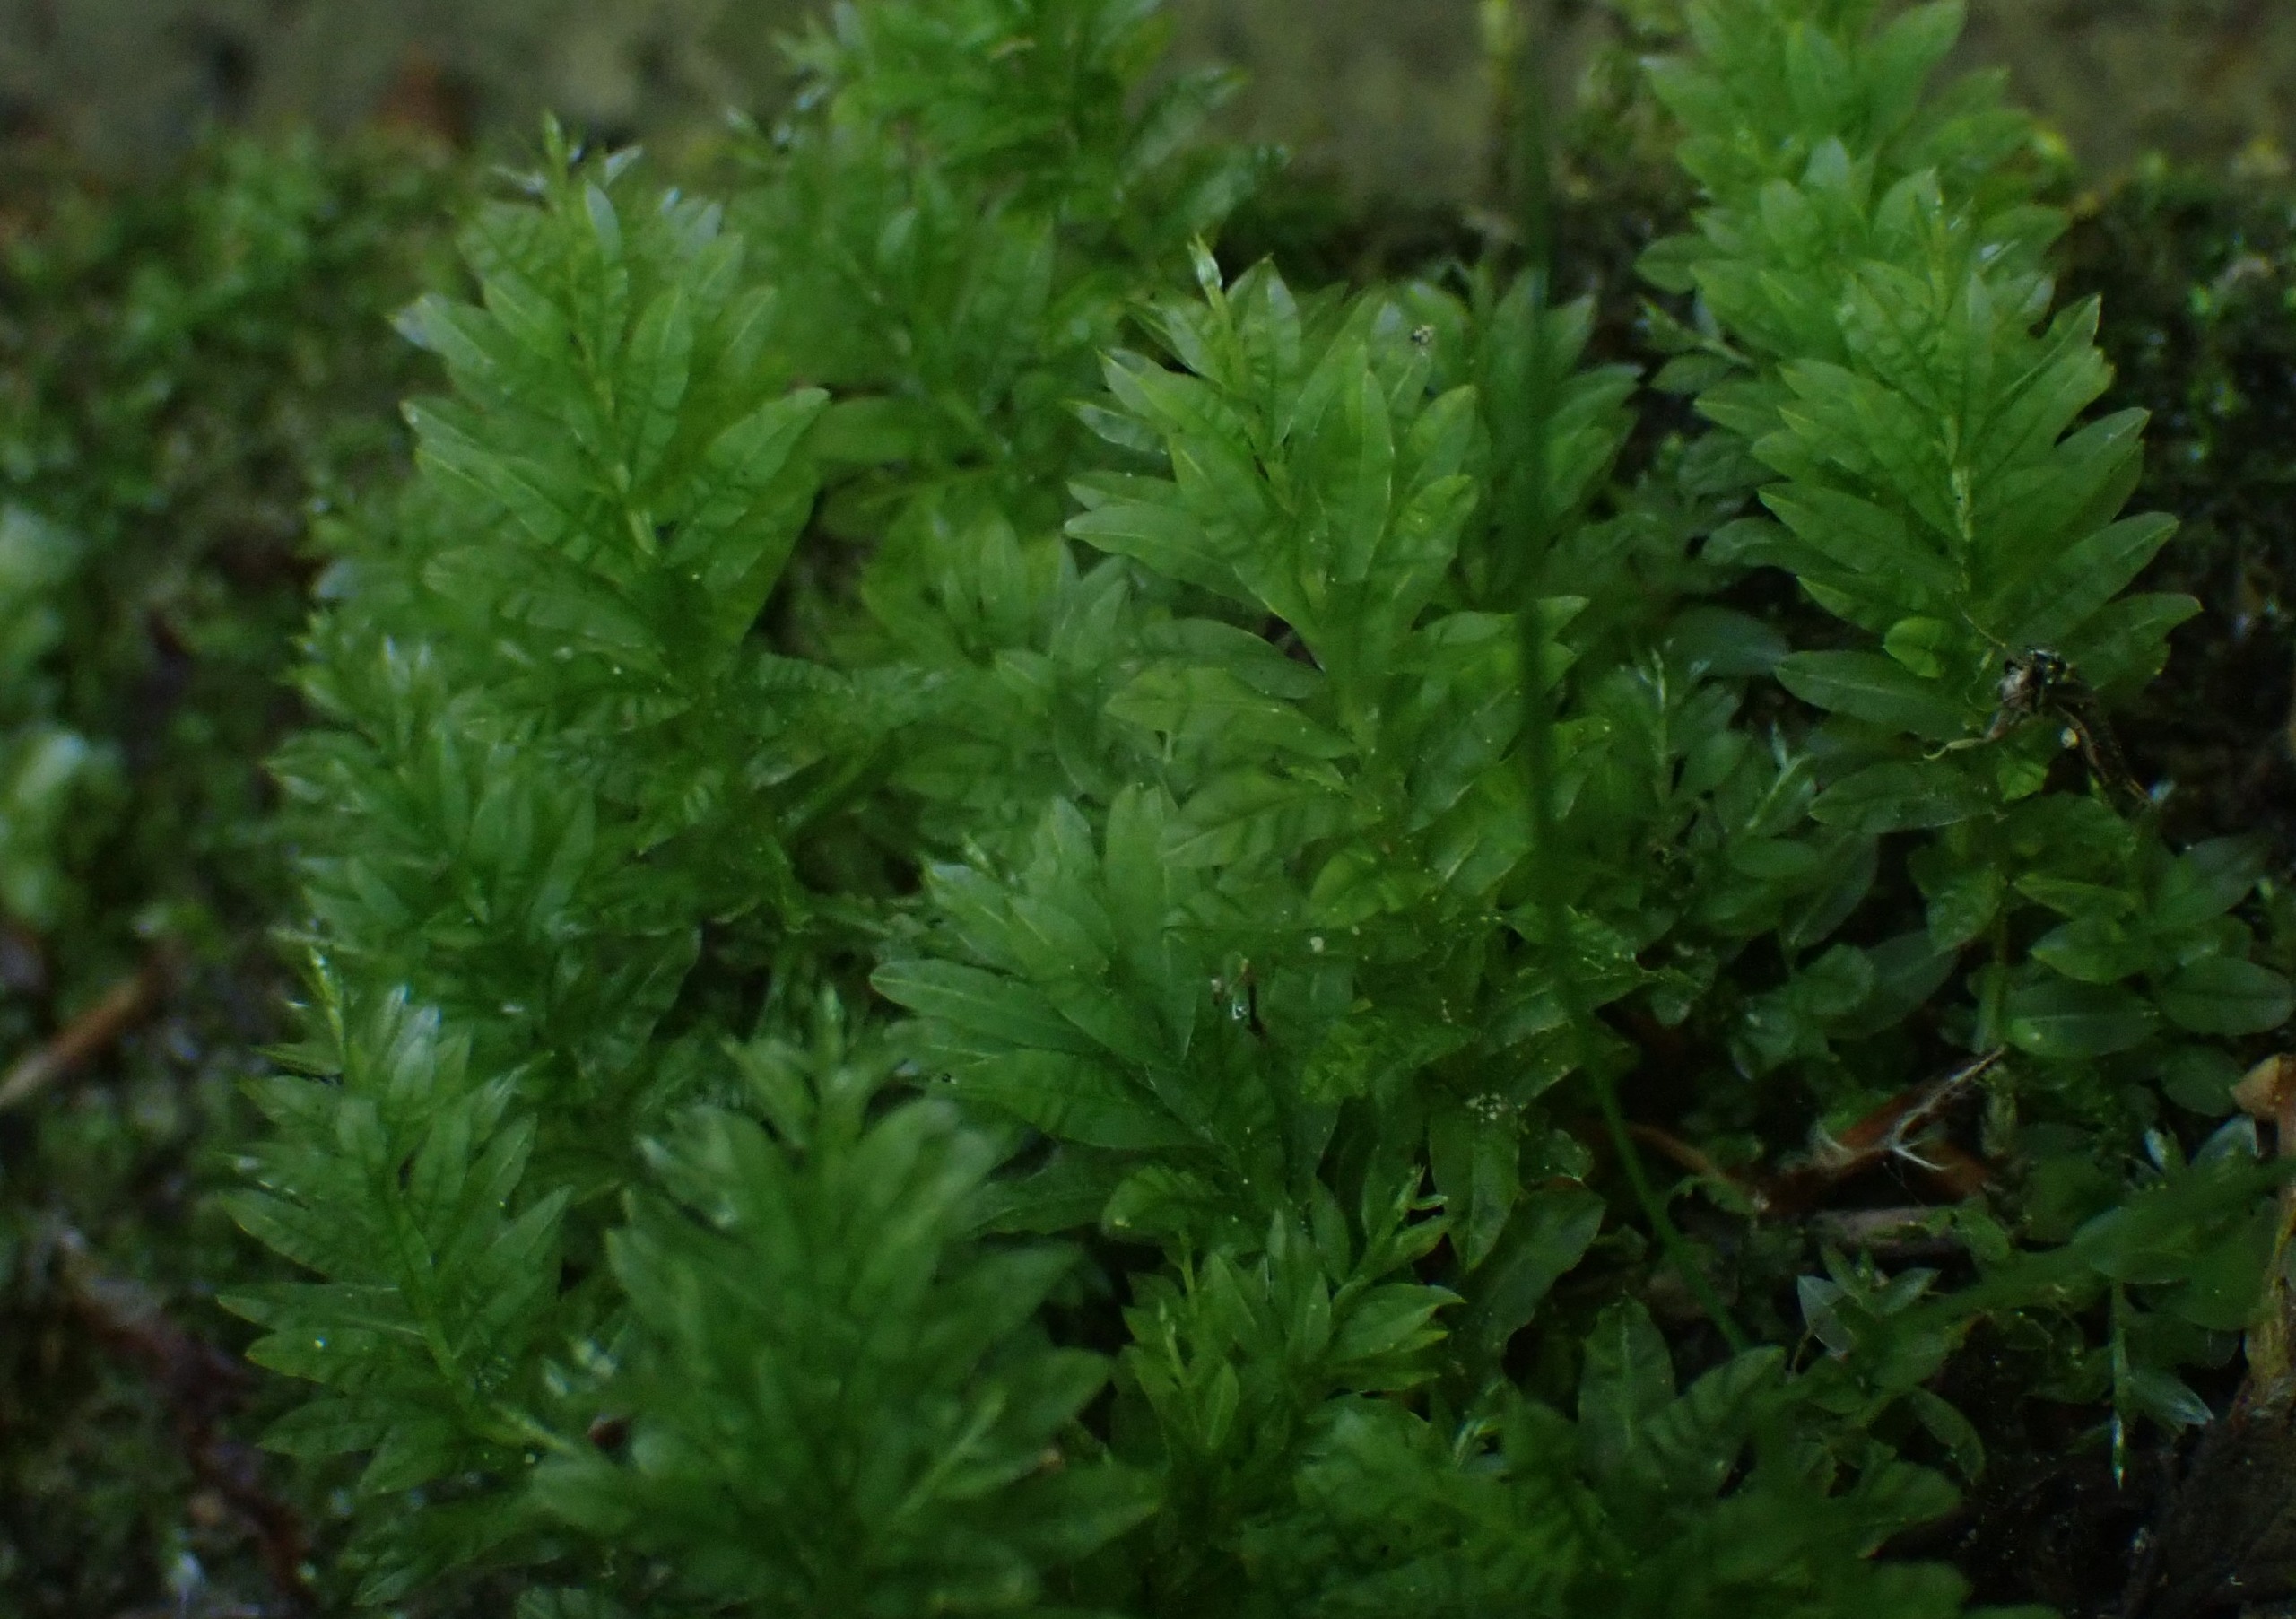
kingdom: Plantae
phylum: Bryophyta
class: Bryopsida
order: Bryales
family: Mniaceae
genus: Plagiomnium
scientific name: Plagiomnium undulatum
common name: Bølget krybstjerne
